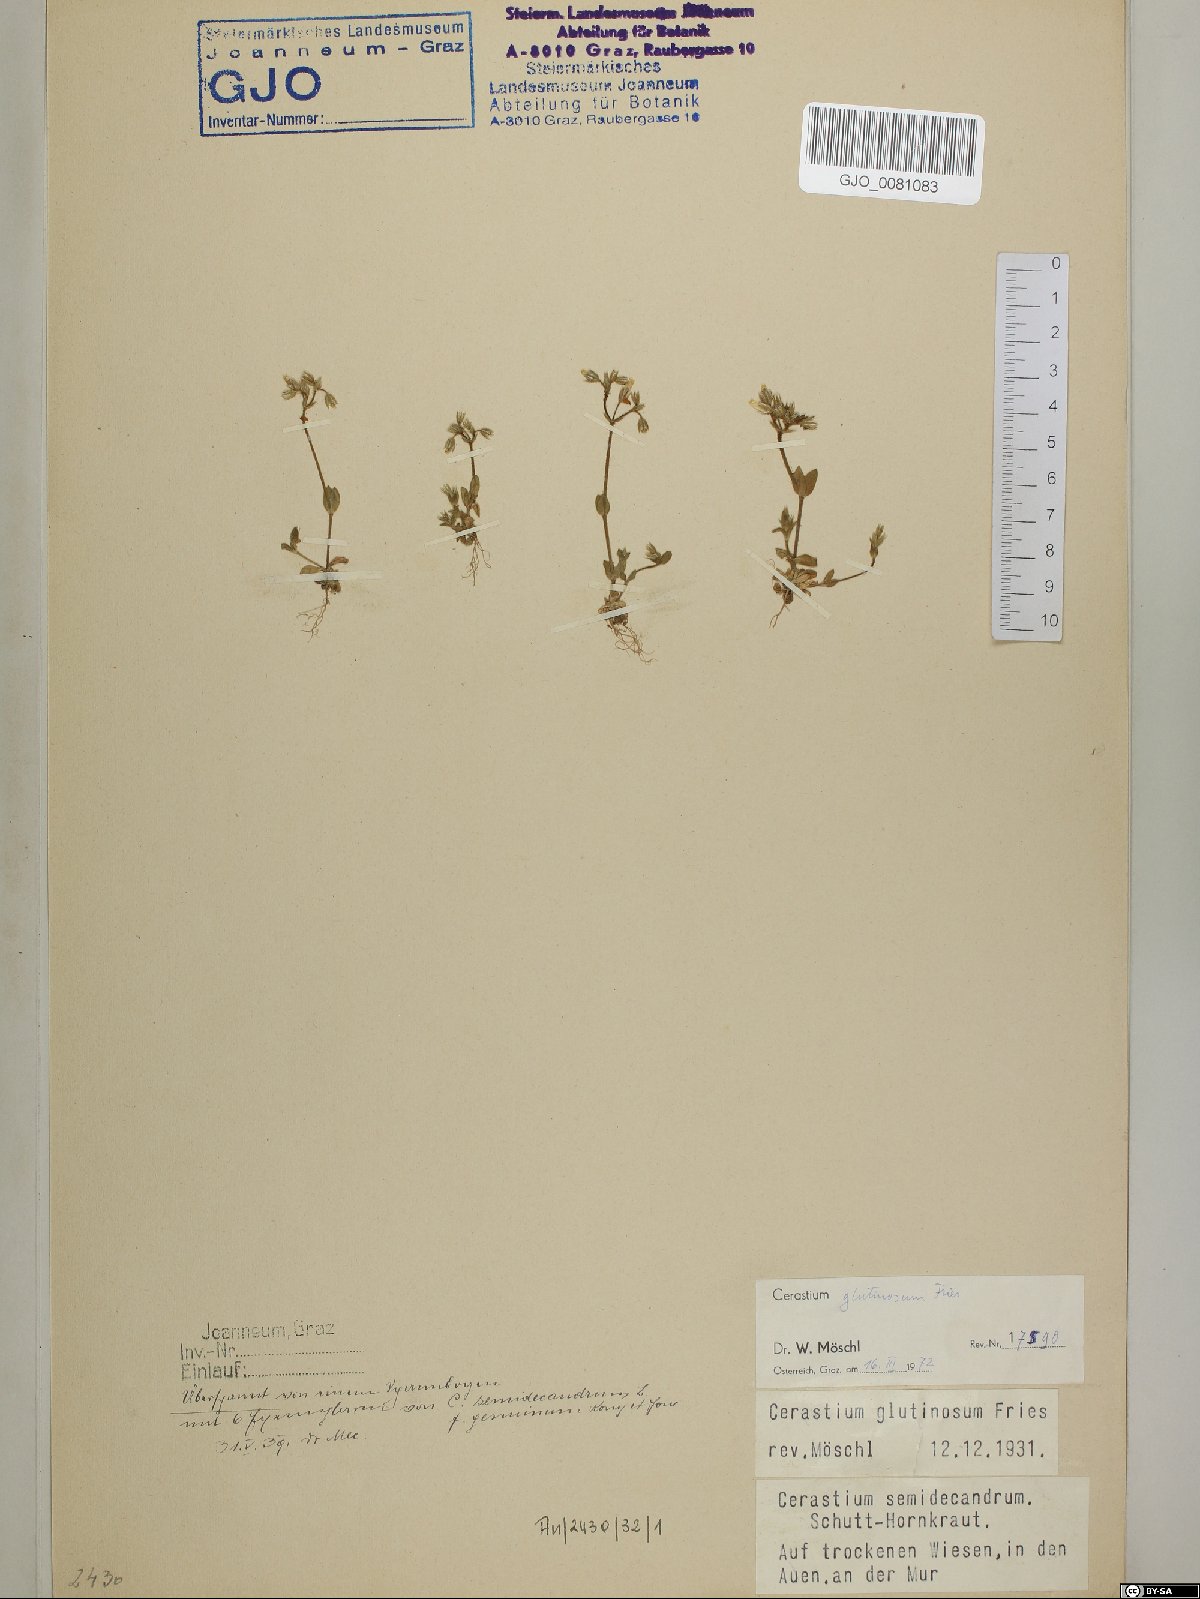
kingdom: Plantae
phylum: Tracheophyta
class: Magnoliopsida
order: Caryophyllales
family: Caryophyllaceae
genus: Cerastium
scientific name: Cerastium glutinosum
